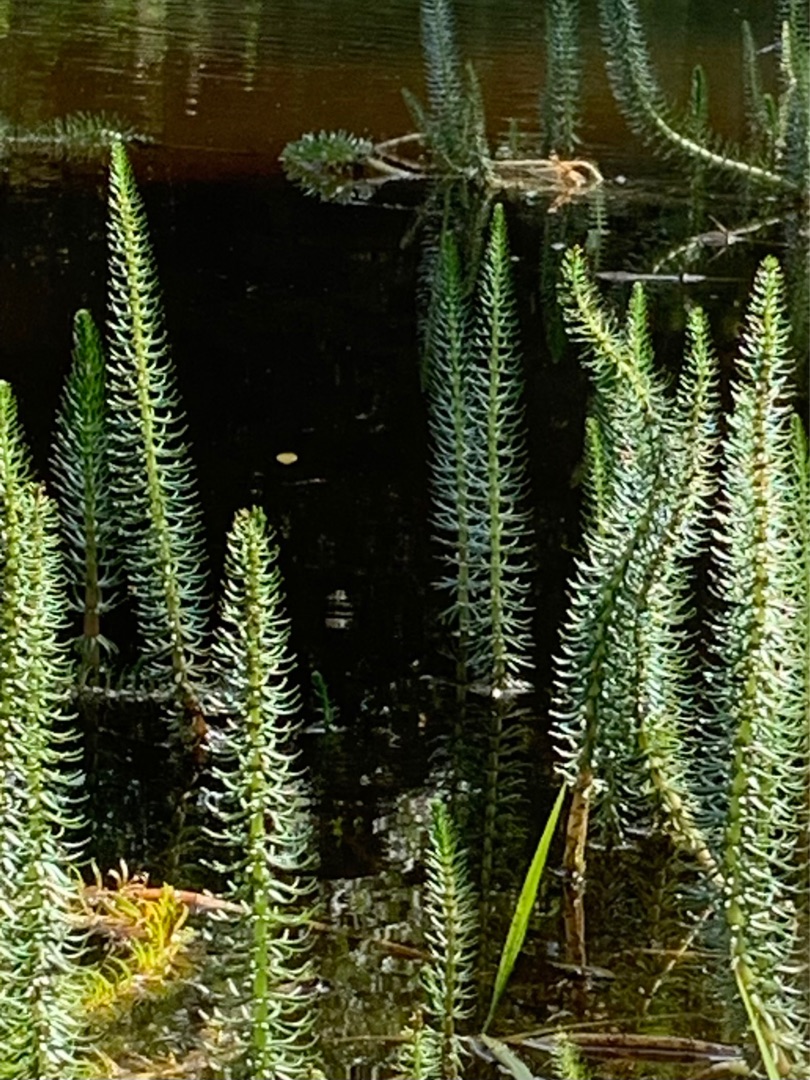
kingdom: Plantae
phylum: Tracheophyta
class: Magnoliopsida
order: Lamiales
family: Plantaginaceae
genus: Hippuris
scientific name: Hippuris vulgaris
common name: Vandspir
